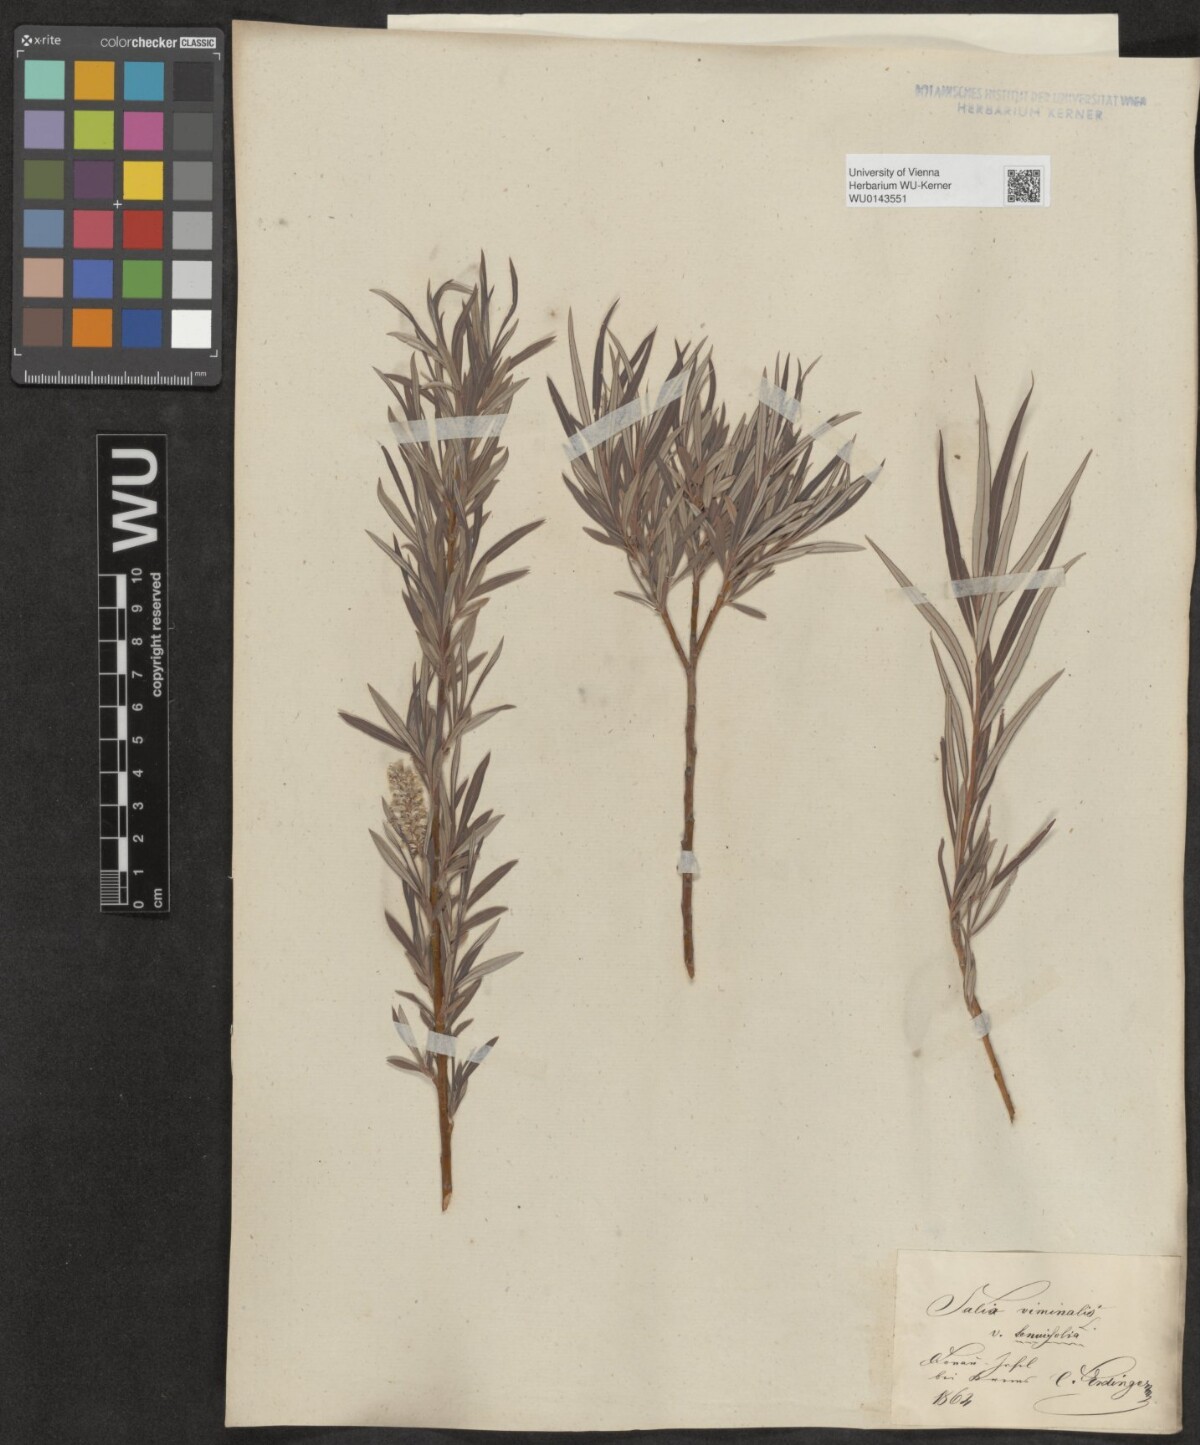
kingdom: Plantae
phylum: Tracheophyta
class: Magnoliopsida
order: Malpighiales
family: Salicaceae
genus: Salix
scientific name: Salix viminalis
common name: Osier
